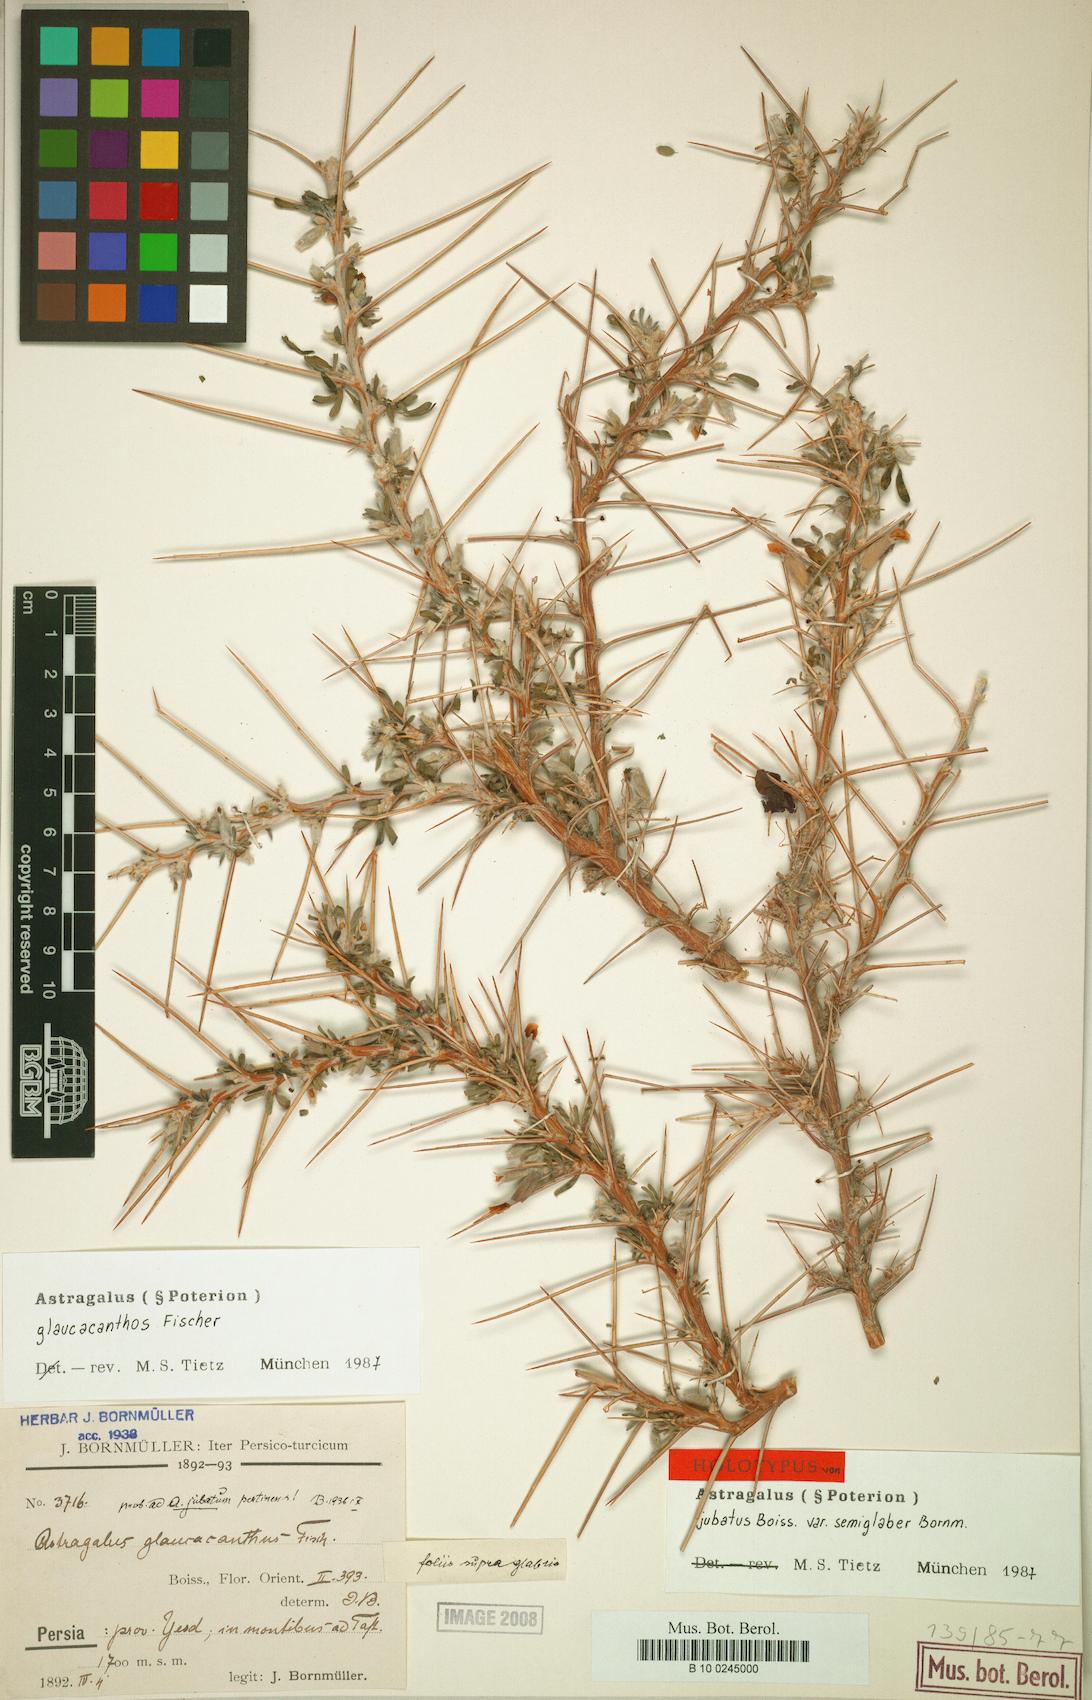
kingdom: Plantae
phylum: Tracheophyta
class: Magnoliopsida
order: Fabales
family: Fabaceae
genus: Astragalus
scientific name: Astragalus glaucacanthos
